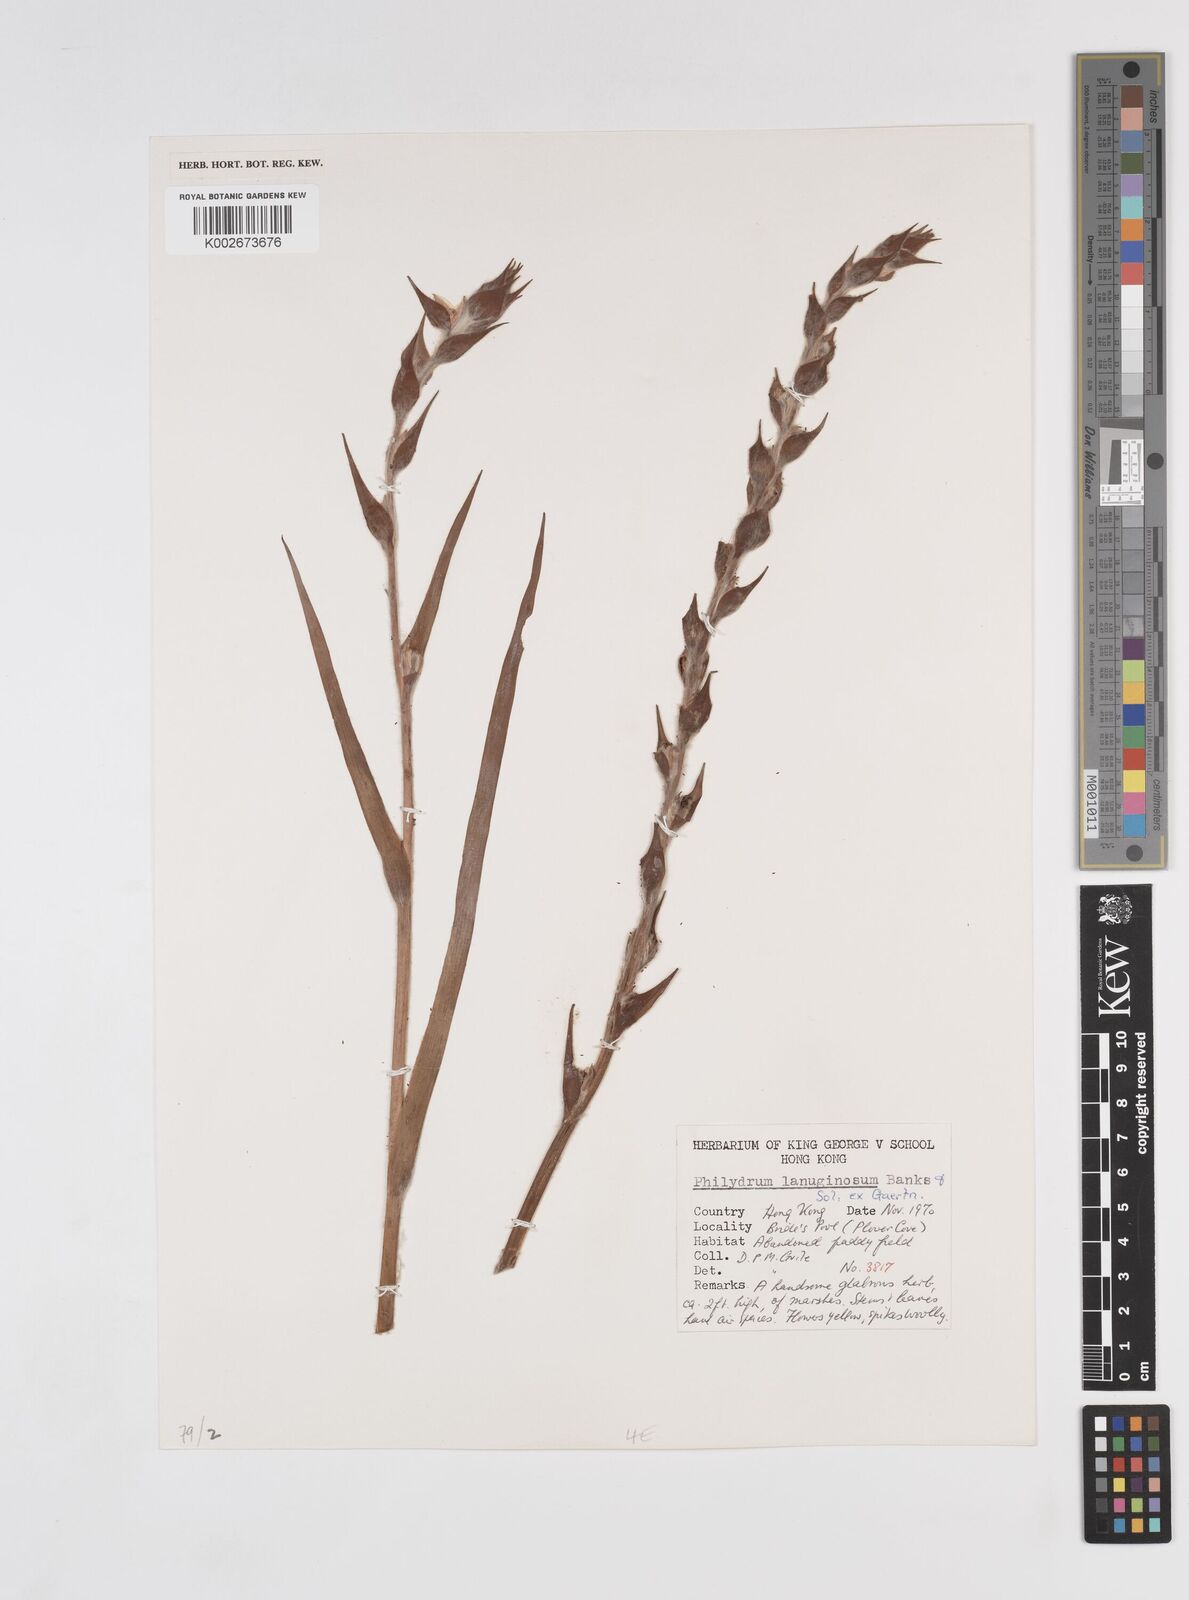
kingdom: Plantae
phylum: Tracheophyta
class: Liliopsida
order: Commelinales
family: Philydraceae
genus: Philydrum
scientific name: Philydrum lanuginosum
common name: Woolly frog's mouth
